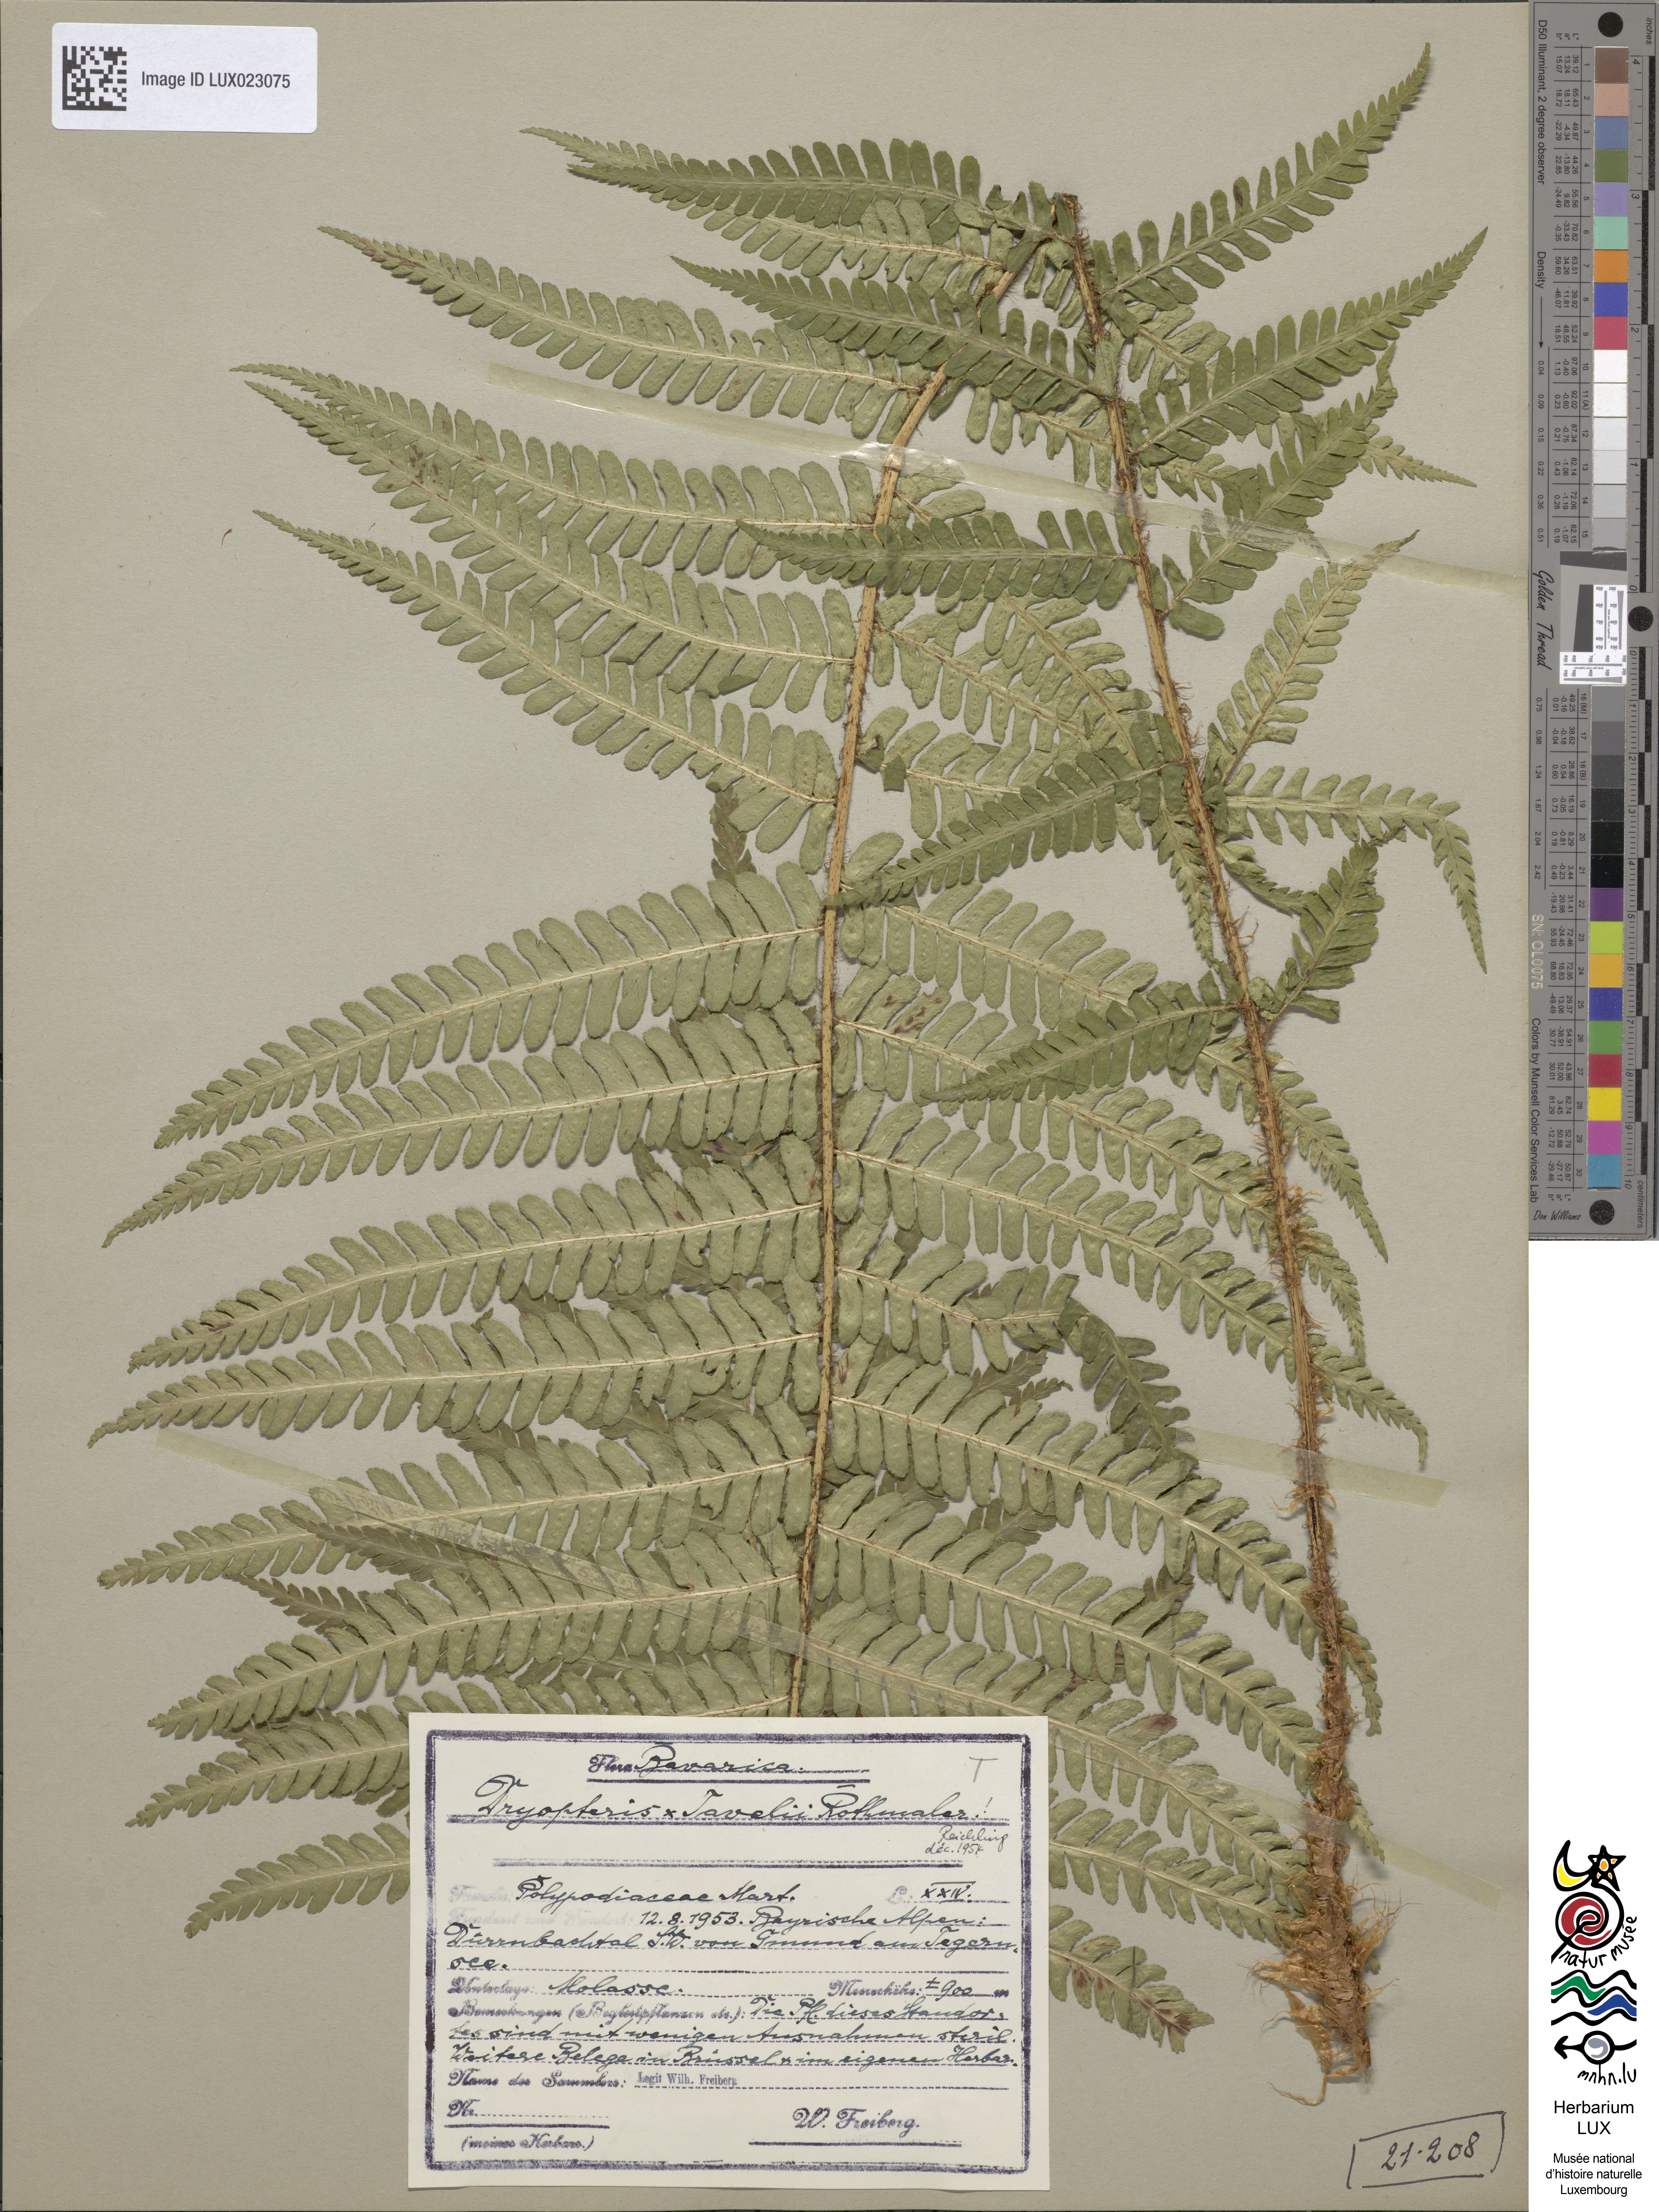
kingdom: Plantae
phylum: Tracheophyta
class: Polypodiopsida
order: Polypodiales
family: Dryopteridaceae
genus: Dryopteris
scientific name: Dryopteris borreri
